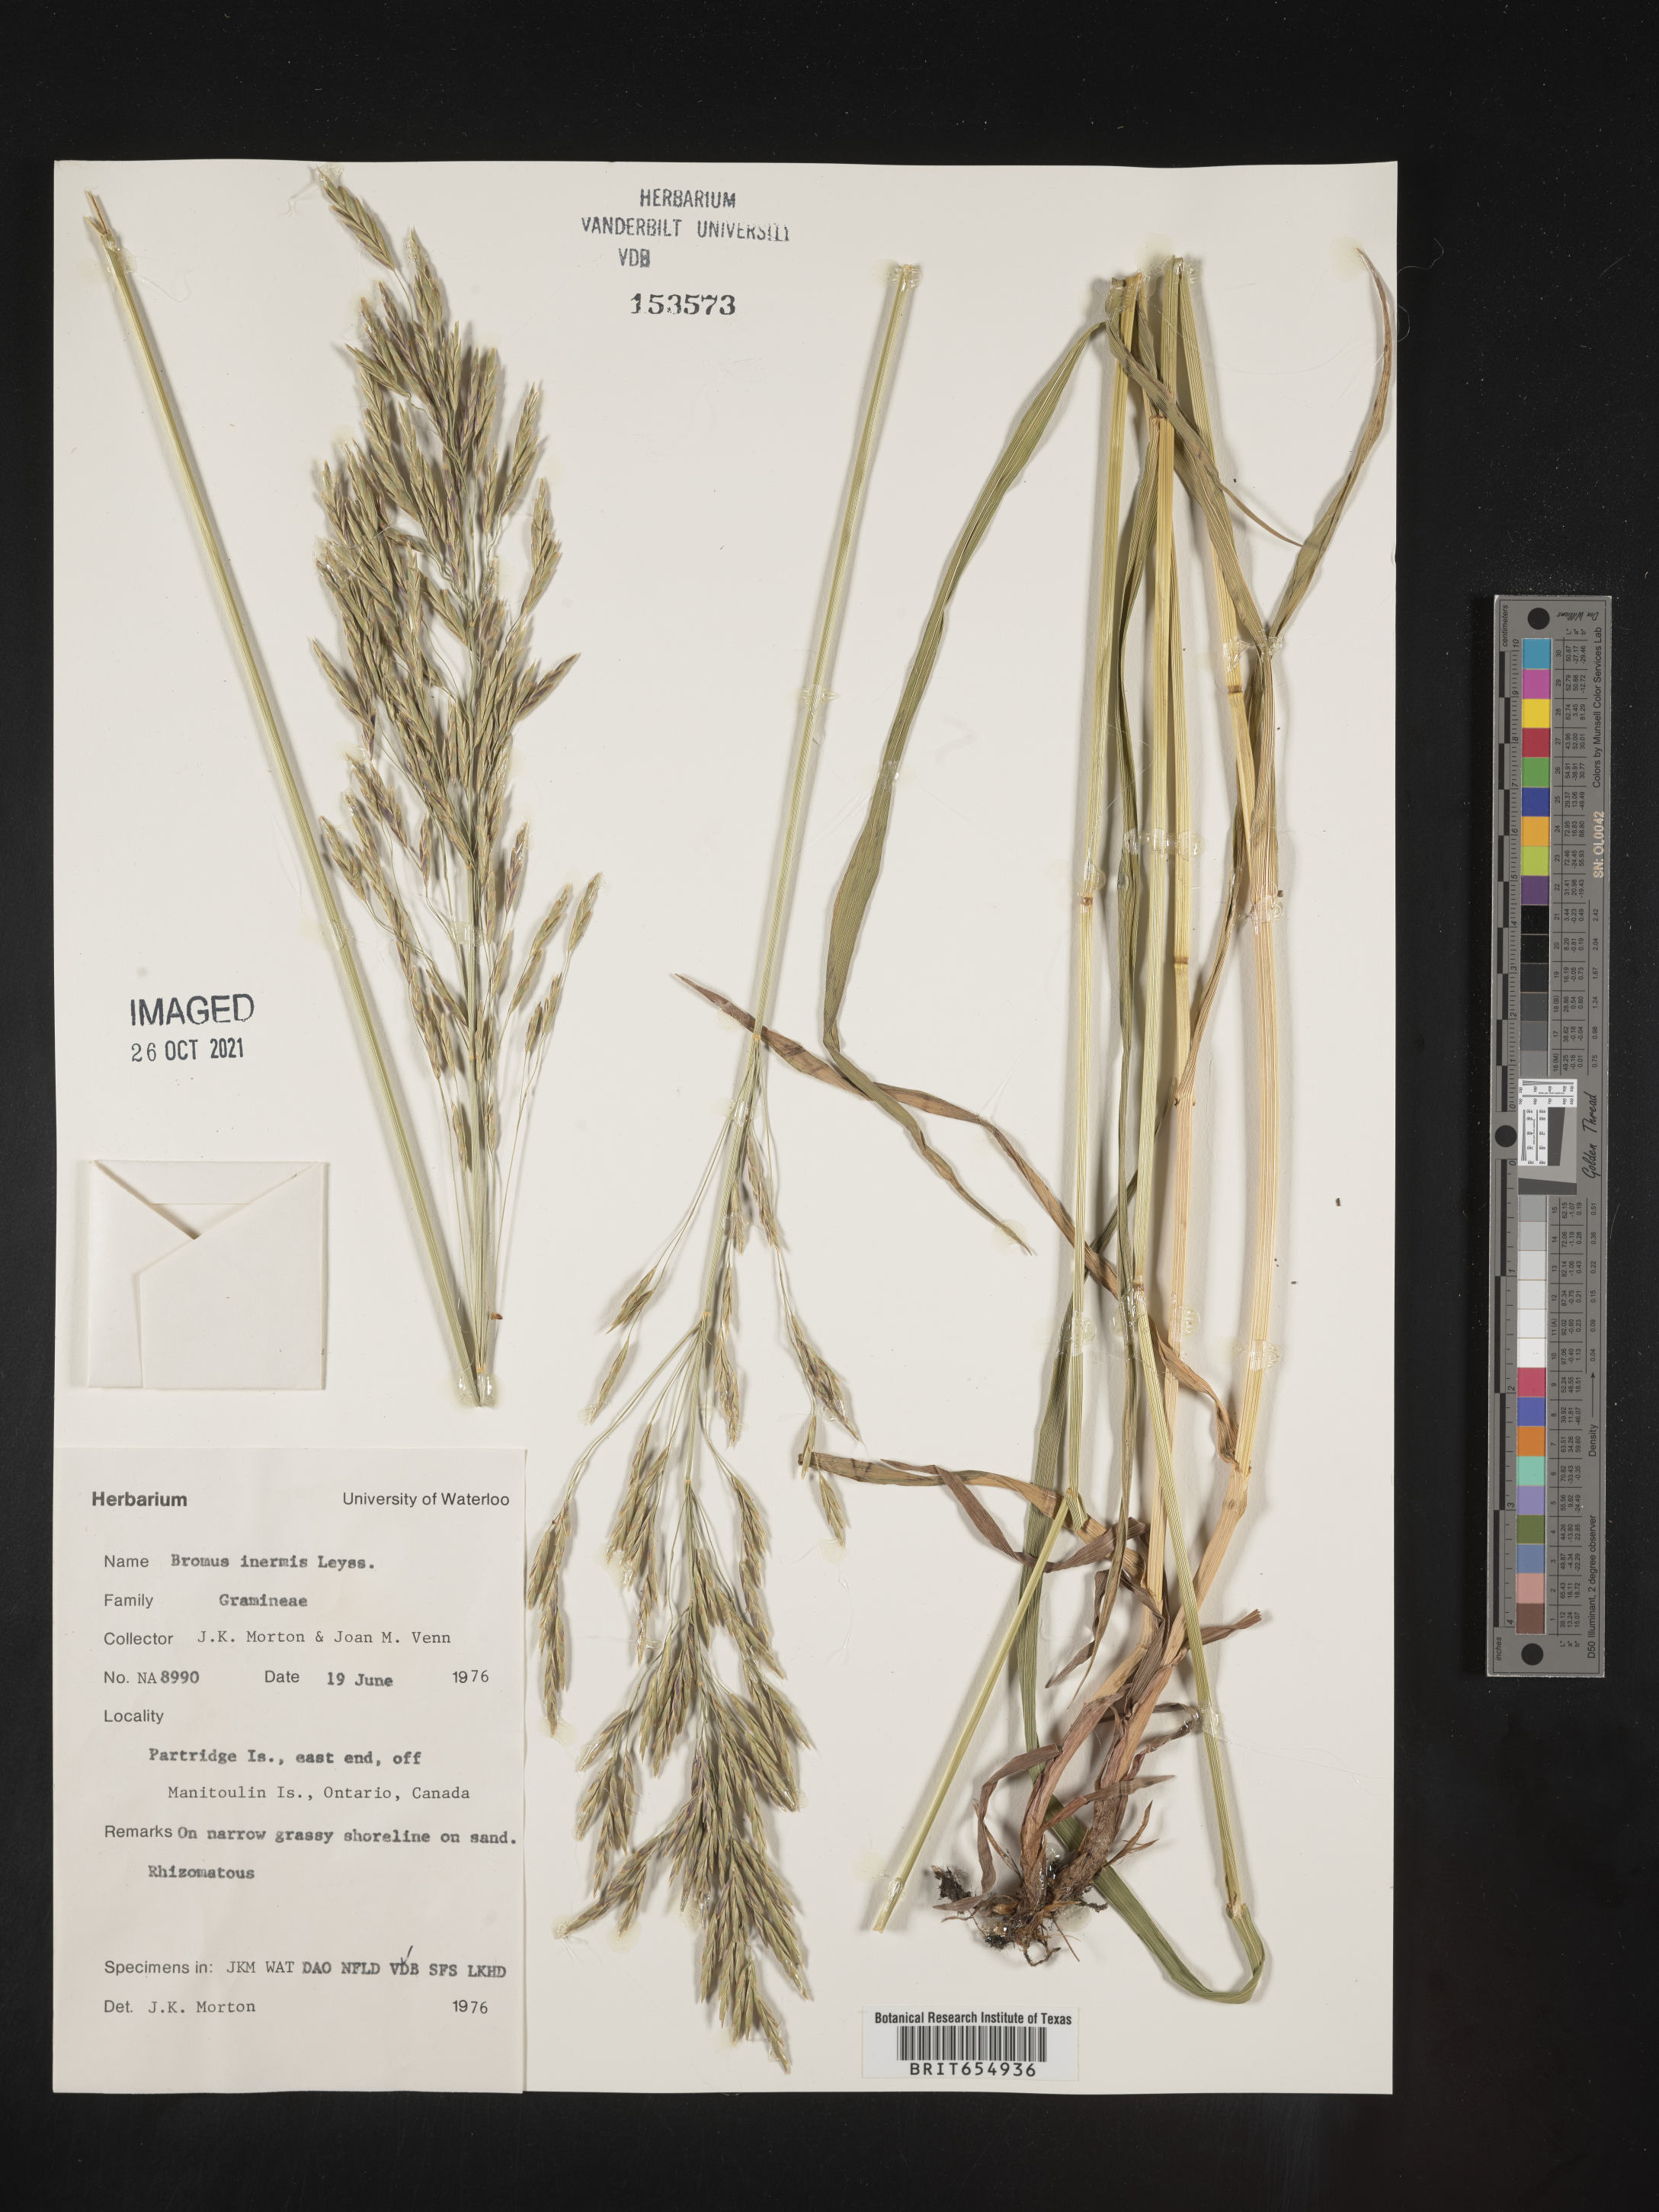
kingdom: Plantae
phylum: Tracheophyta
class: Liliopsida
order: Poales
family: Poaceae
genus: Bromus
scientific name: Bromus
